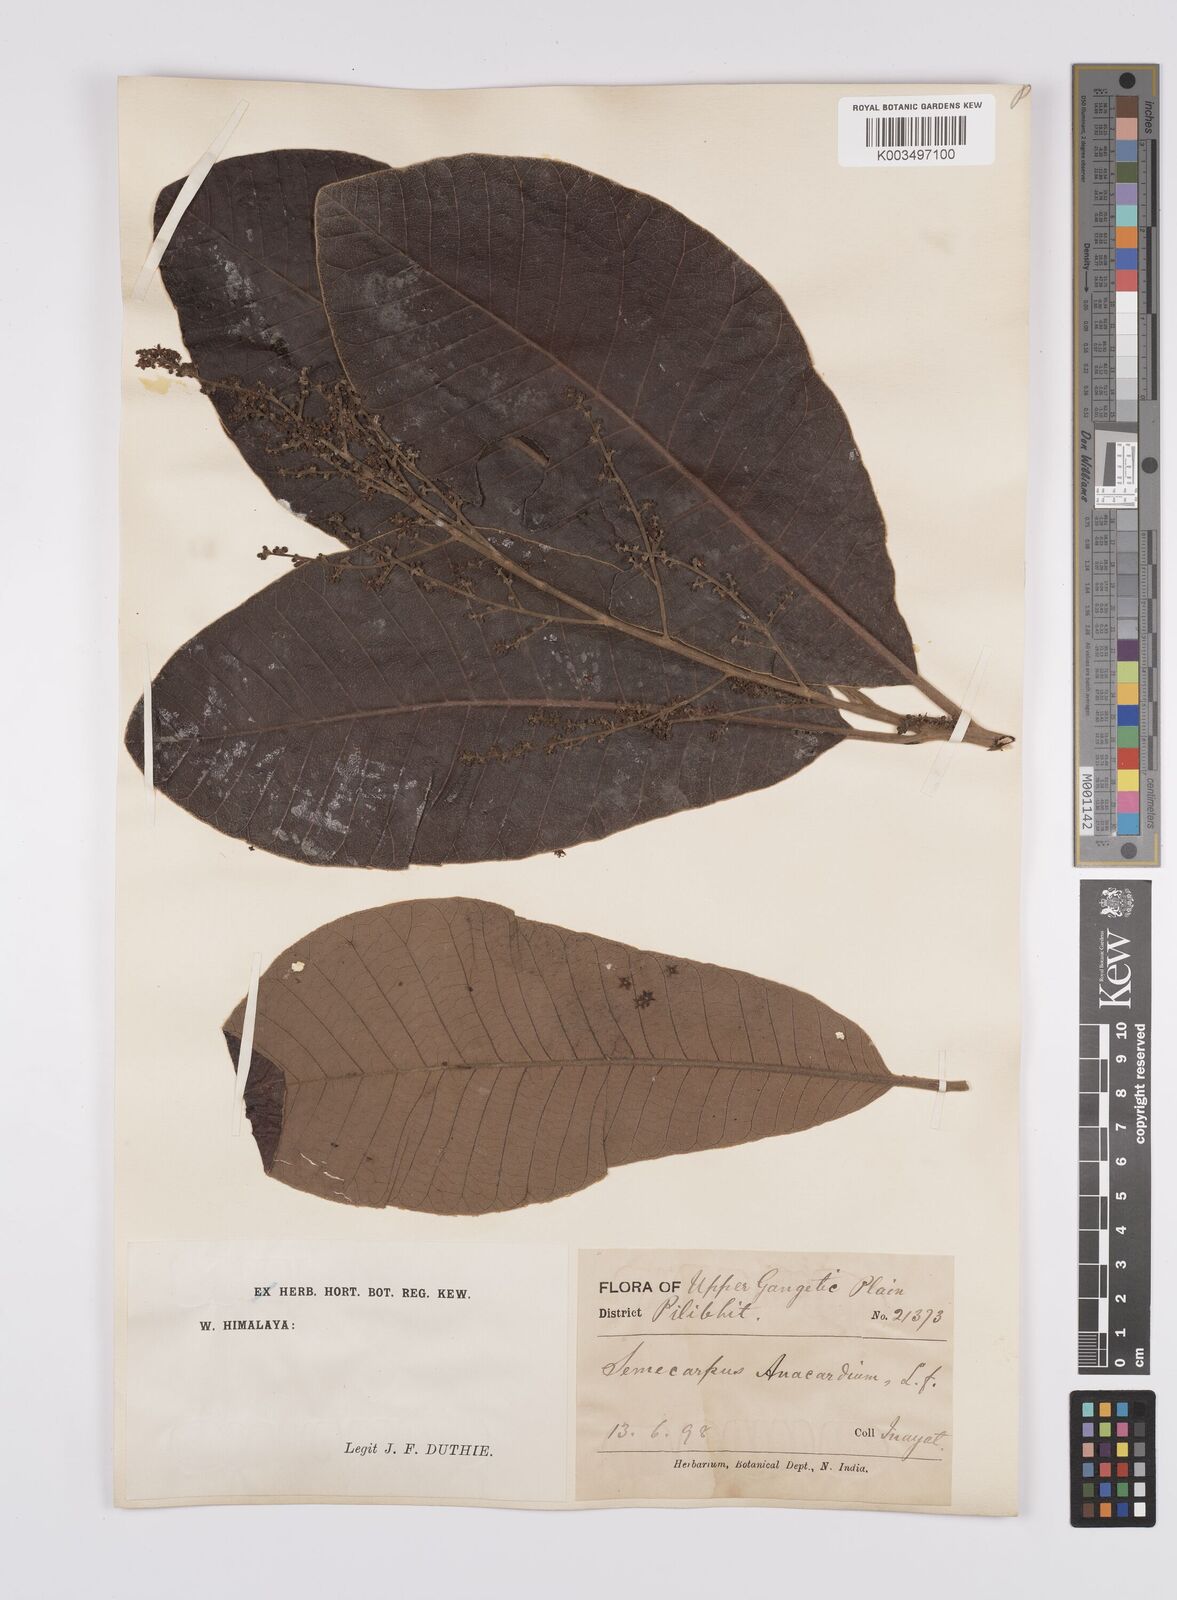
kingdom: Plantae
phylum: Tracheophyta
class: Magnoliopsida
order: Sapindales
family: Anacardiaceae
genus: Semecarpus
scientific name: Semecarpus anacardium
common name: Marking nut-tree
